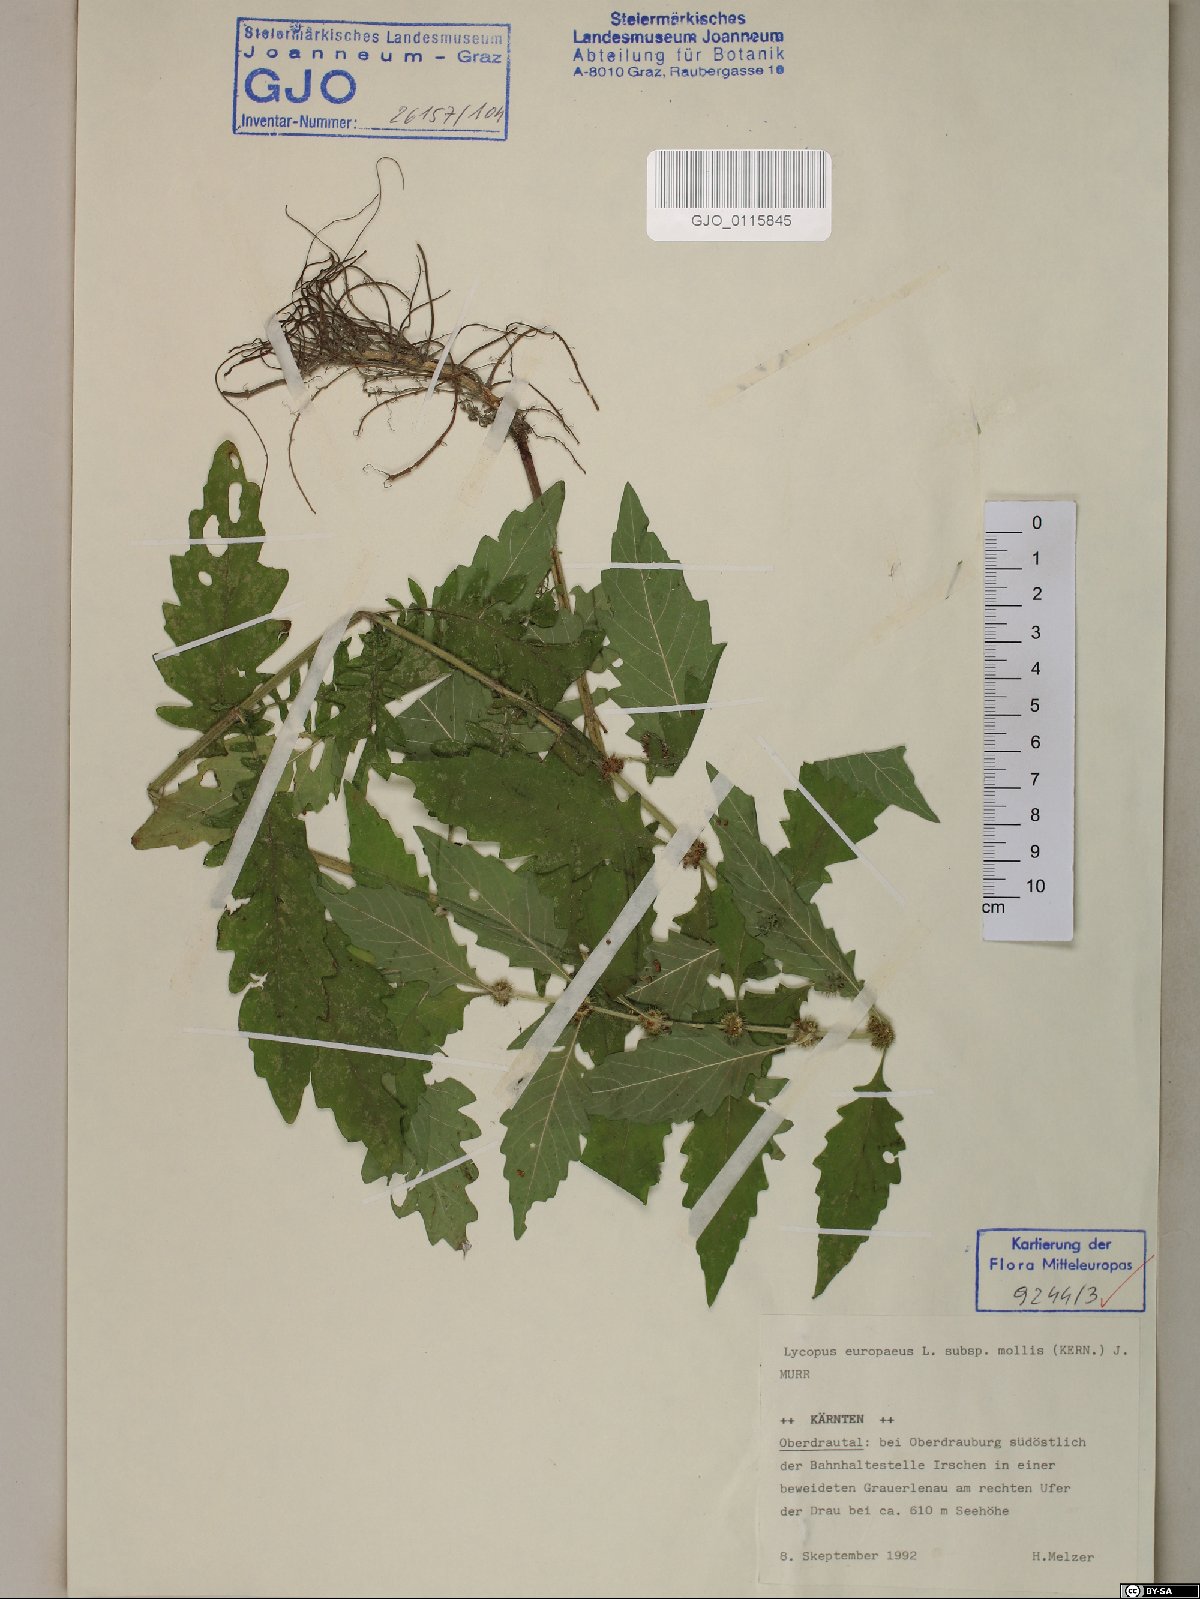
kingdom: Plantae
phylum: Tracheophyta
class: Magnoliopsida
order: Lamiales
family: Lamiaceae
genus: Lycopus
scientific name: Lycopus europaeus
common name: European bugleweed
